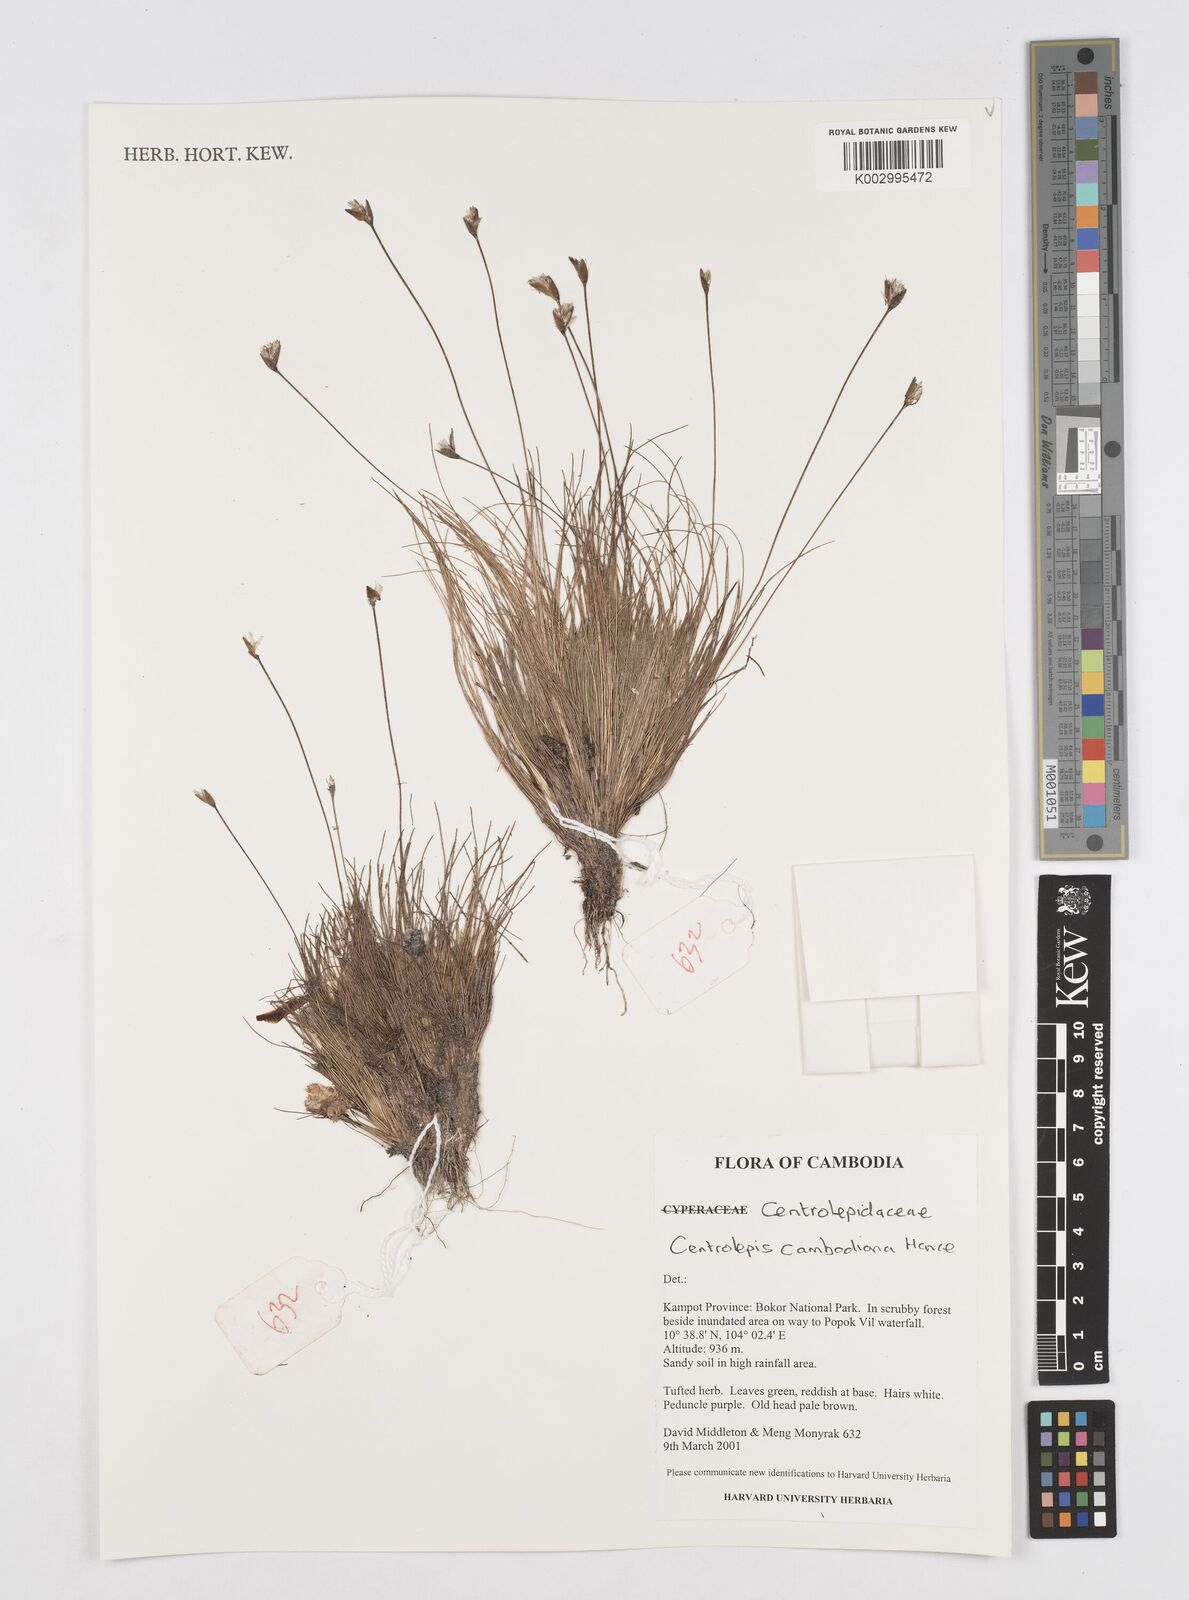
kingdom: Plantae
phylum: Tracheophyta
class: Liliopsida
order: Poales
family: Restionaceae
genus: Centrolepis
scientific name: Centrolepis cambodiana
